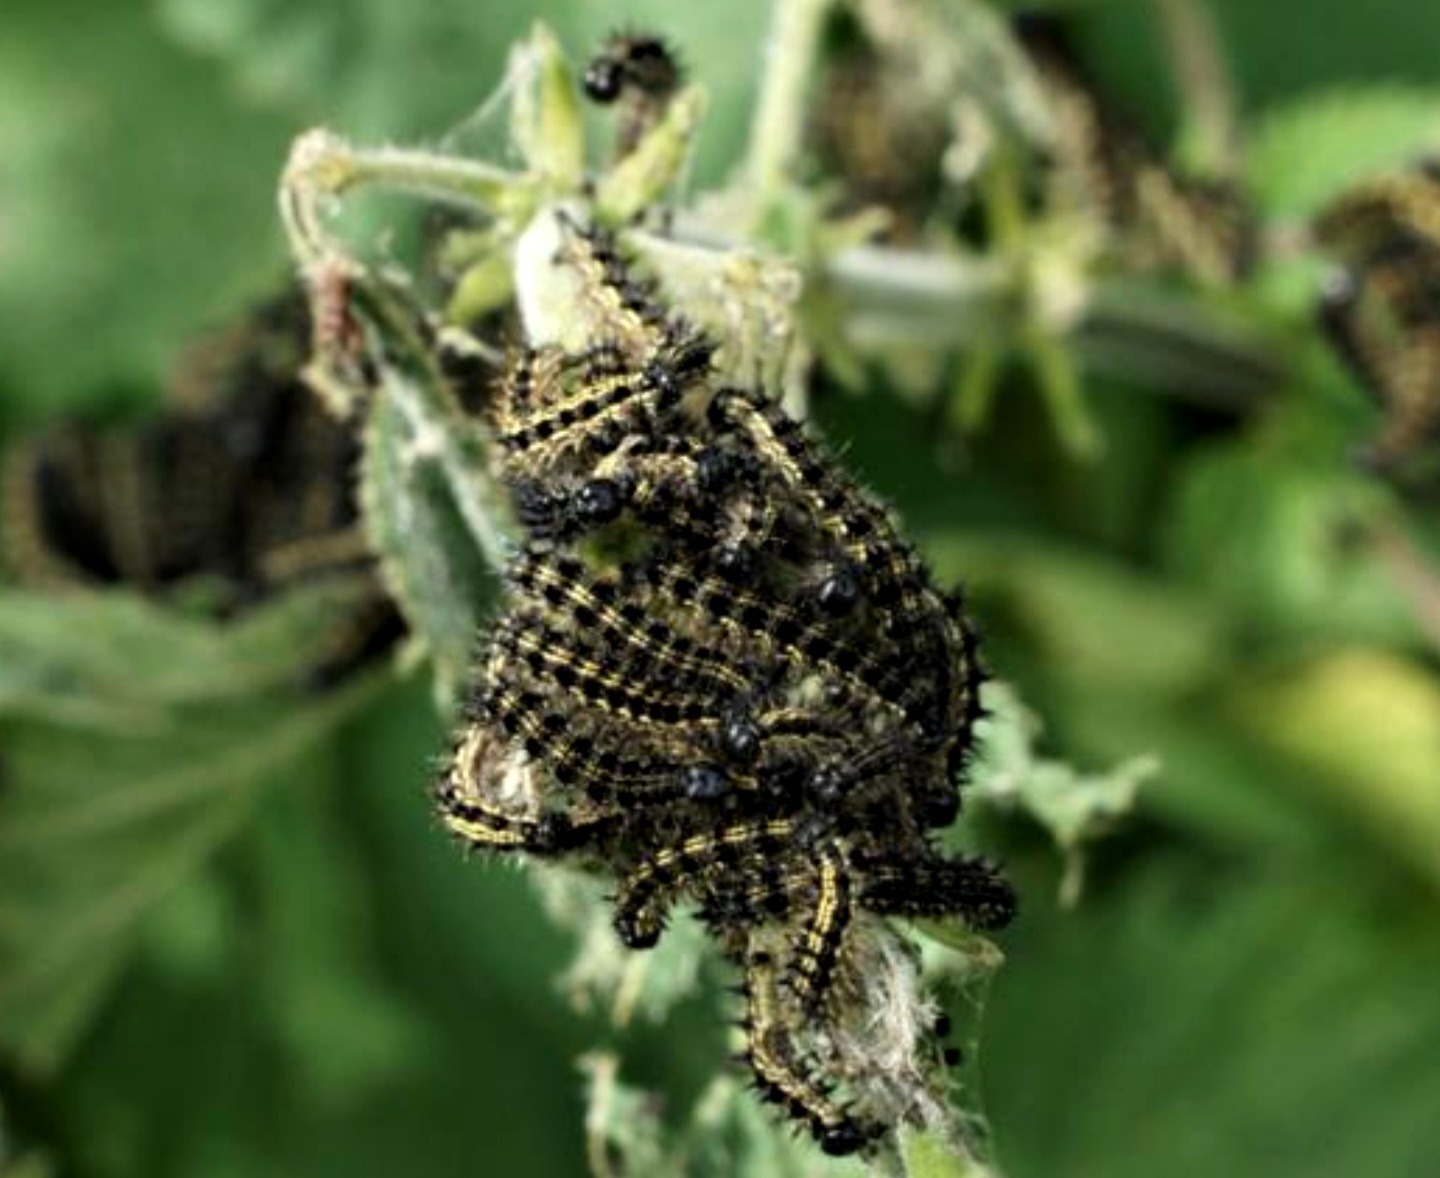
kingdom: Animalia
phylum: Arthropoda
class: Insecta
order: Lepidoptera
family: Nymphalidae
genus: Aglais
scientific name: Aglais urticae
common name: Nældens takvinge
